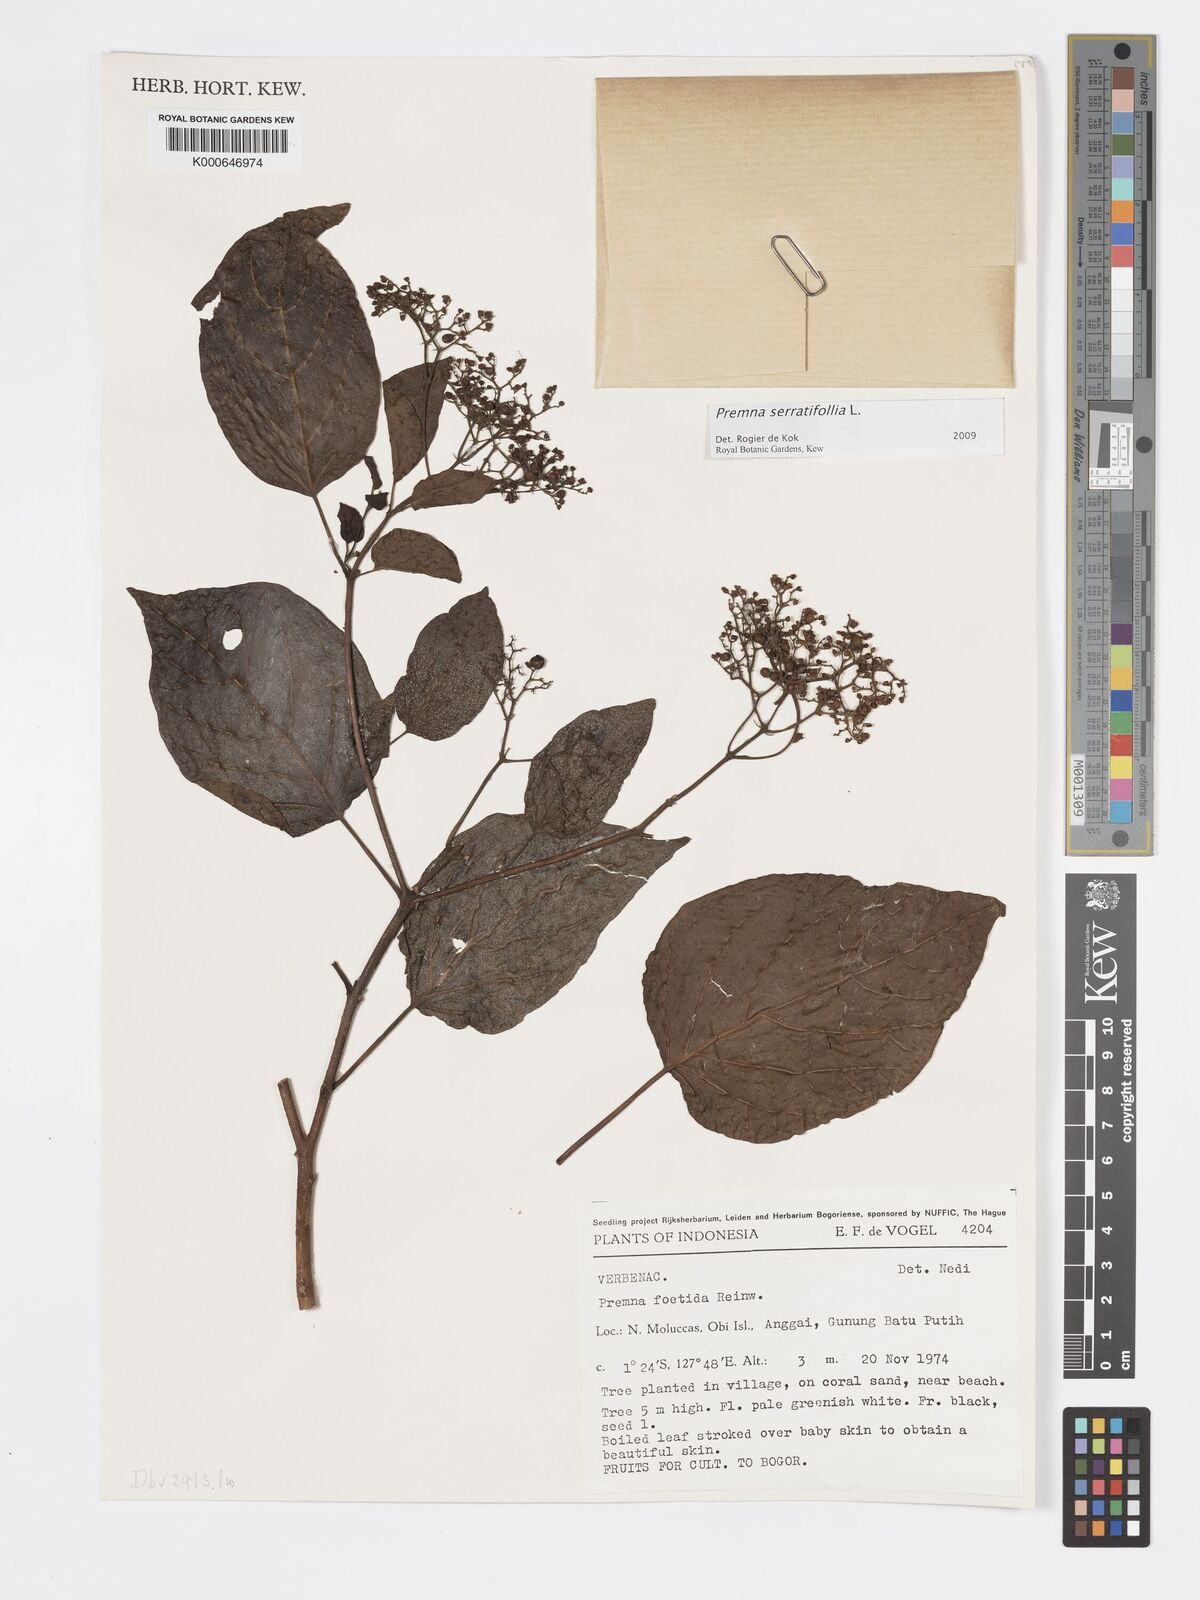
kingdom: Plantae
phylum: Tracheophyta
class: Magnoliopsida
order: Lamiales
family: Lamiaceae
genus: Premna
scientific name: Premna serratifolia
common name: Bastard guelder
